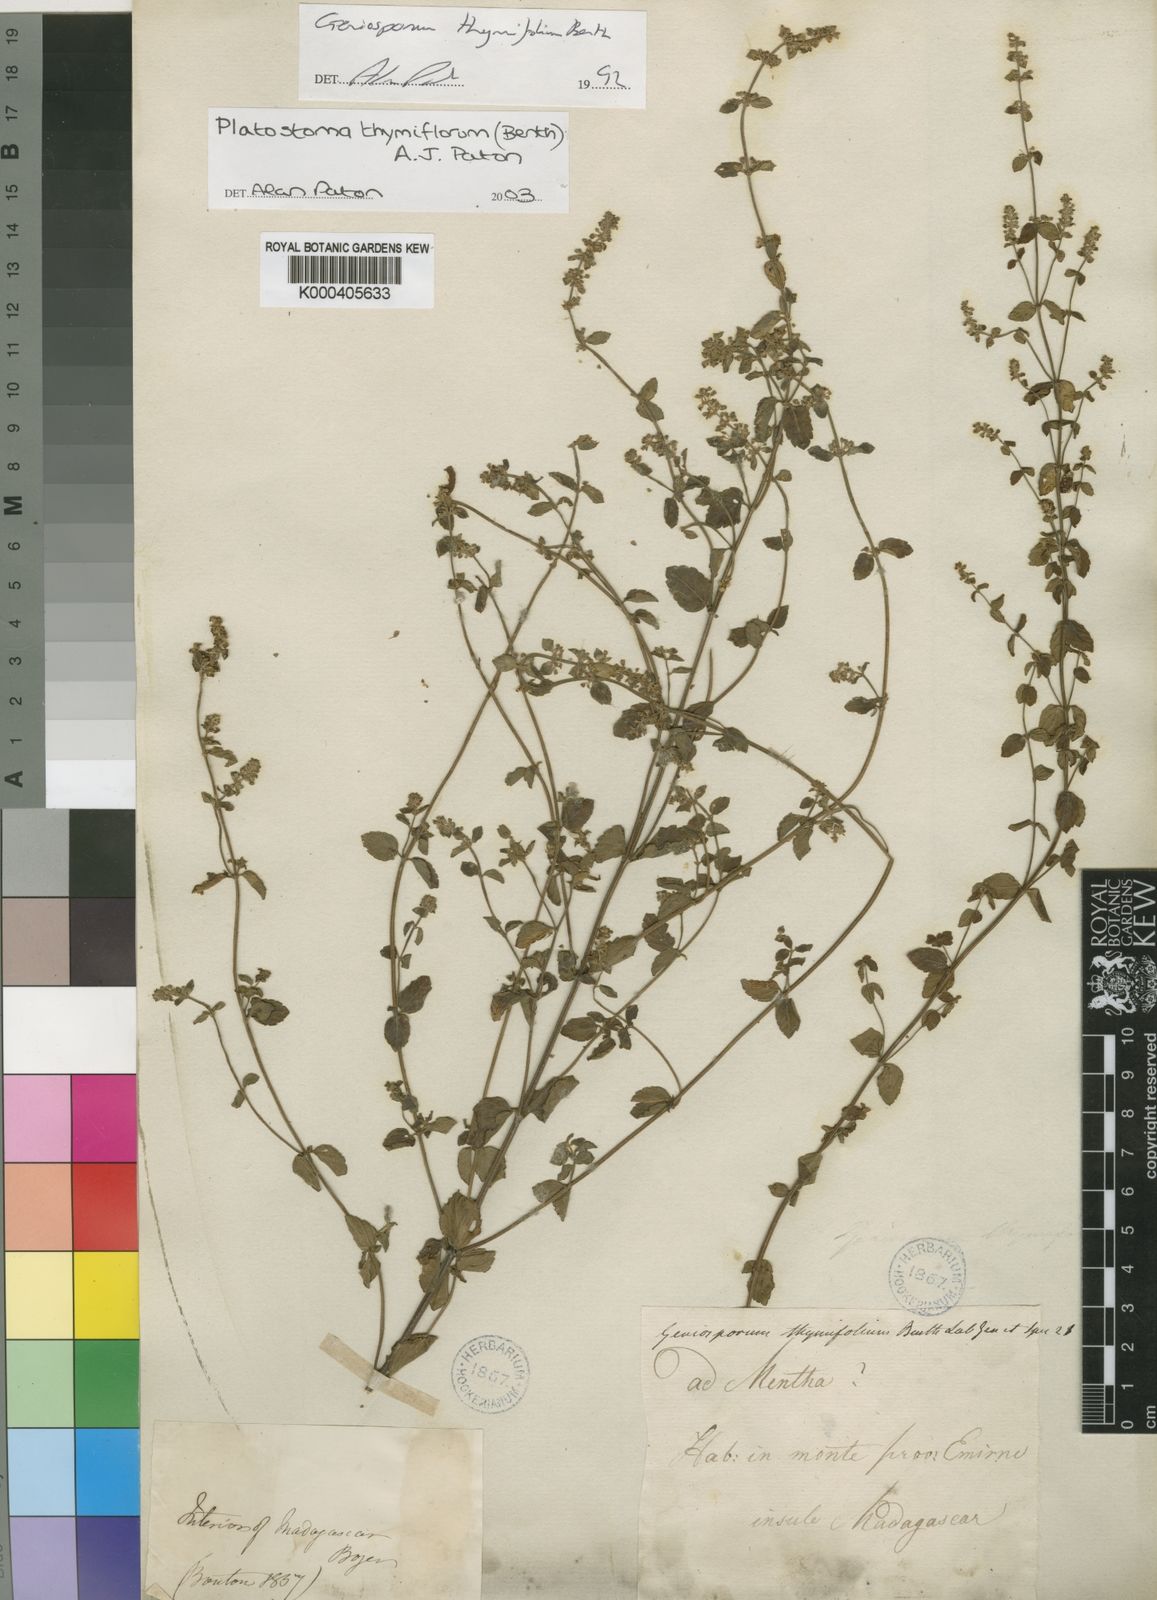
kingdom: Plantae
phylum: Tracheophyta
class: Magnoliopsida
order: Lamiales
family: Lamiaceae
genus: Platostoma
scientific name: Platostoma thymifolium
